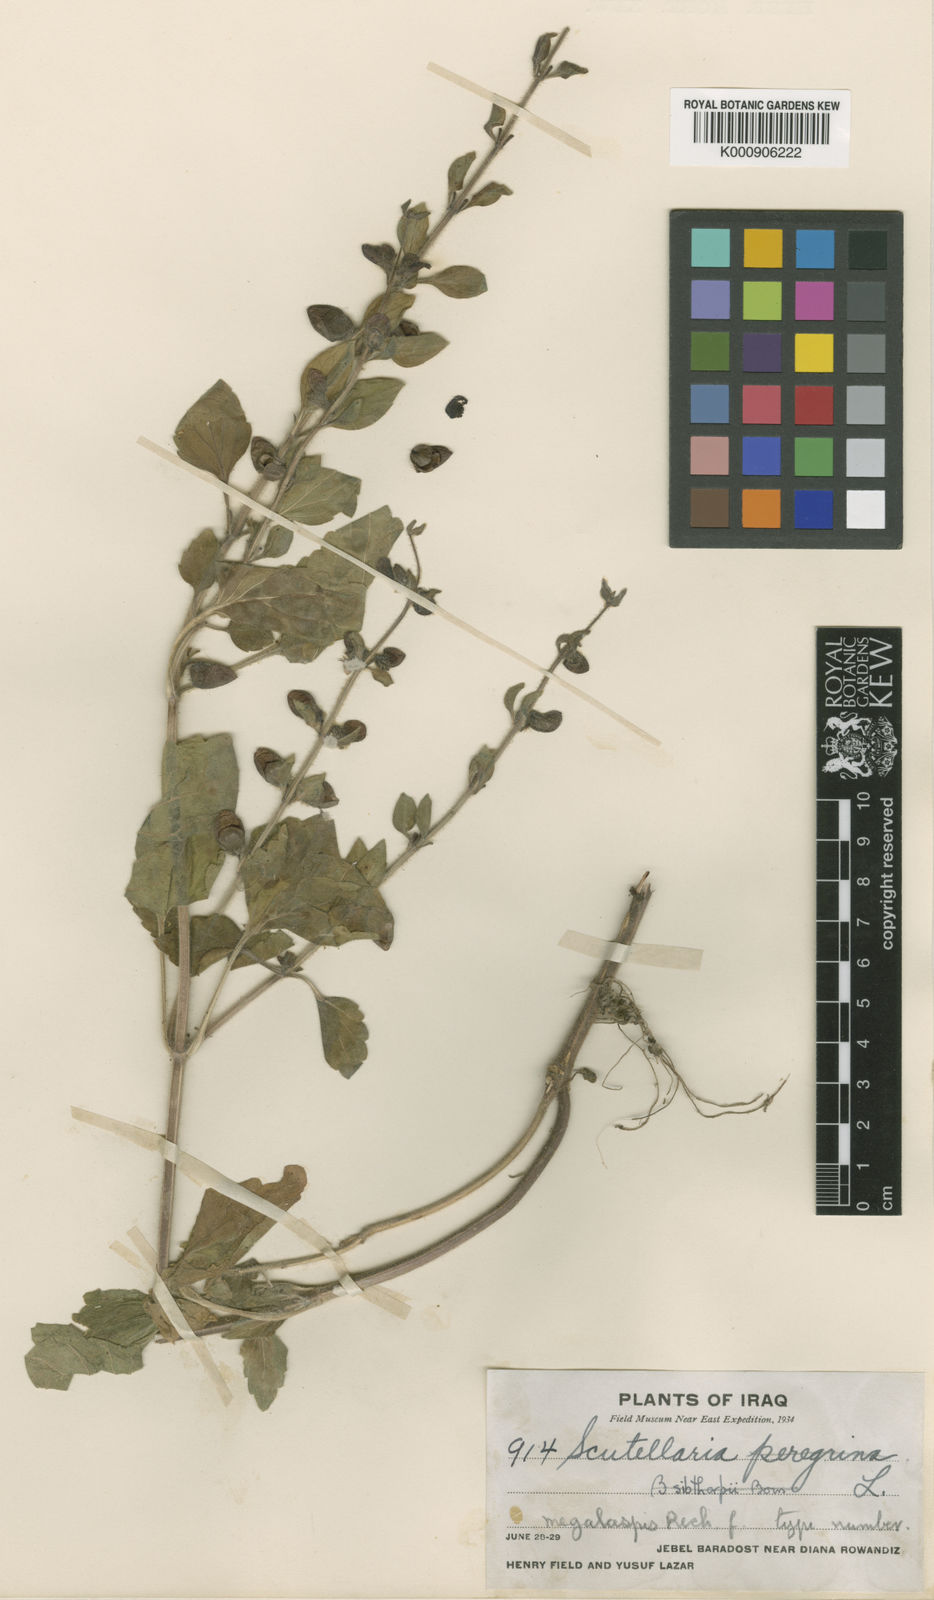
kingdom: Plantae
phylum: Tracheophyta
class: Magnoliopsida
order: Lamiales
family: Lamiaceae
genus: Scutellaria
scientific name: Scutellaria columnae
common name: Large skullcap
